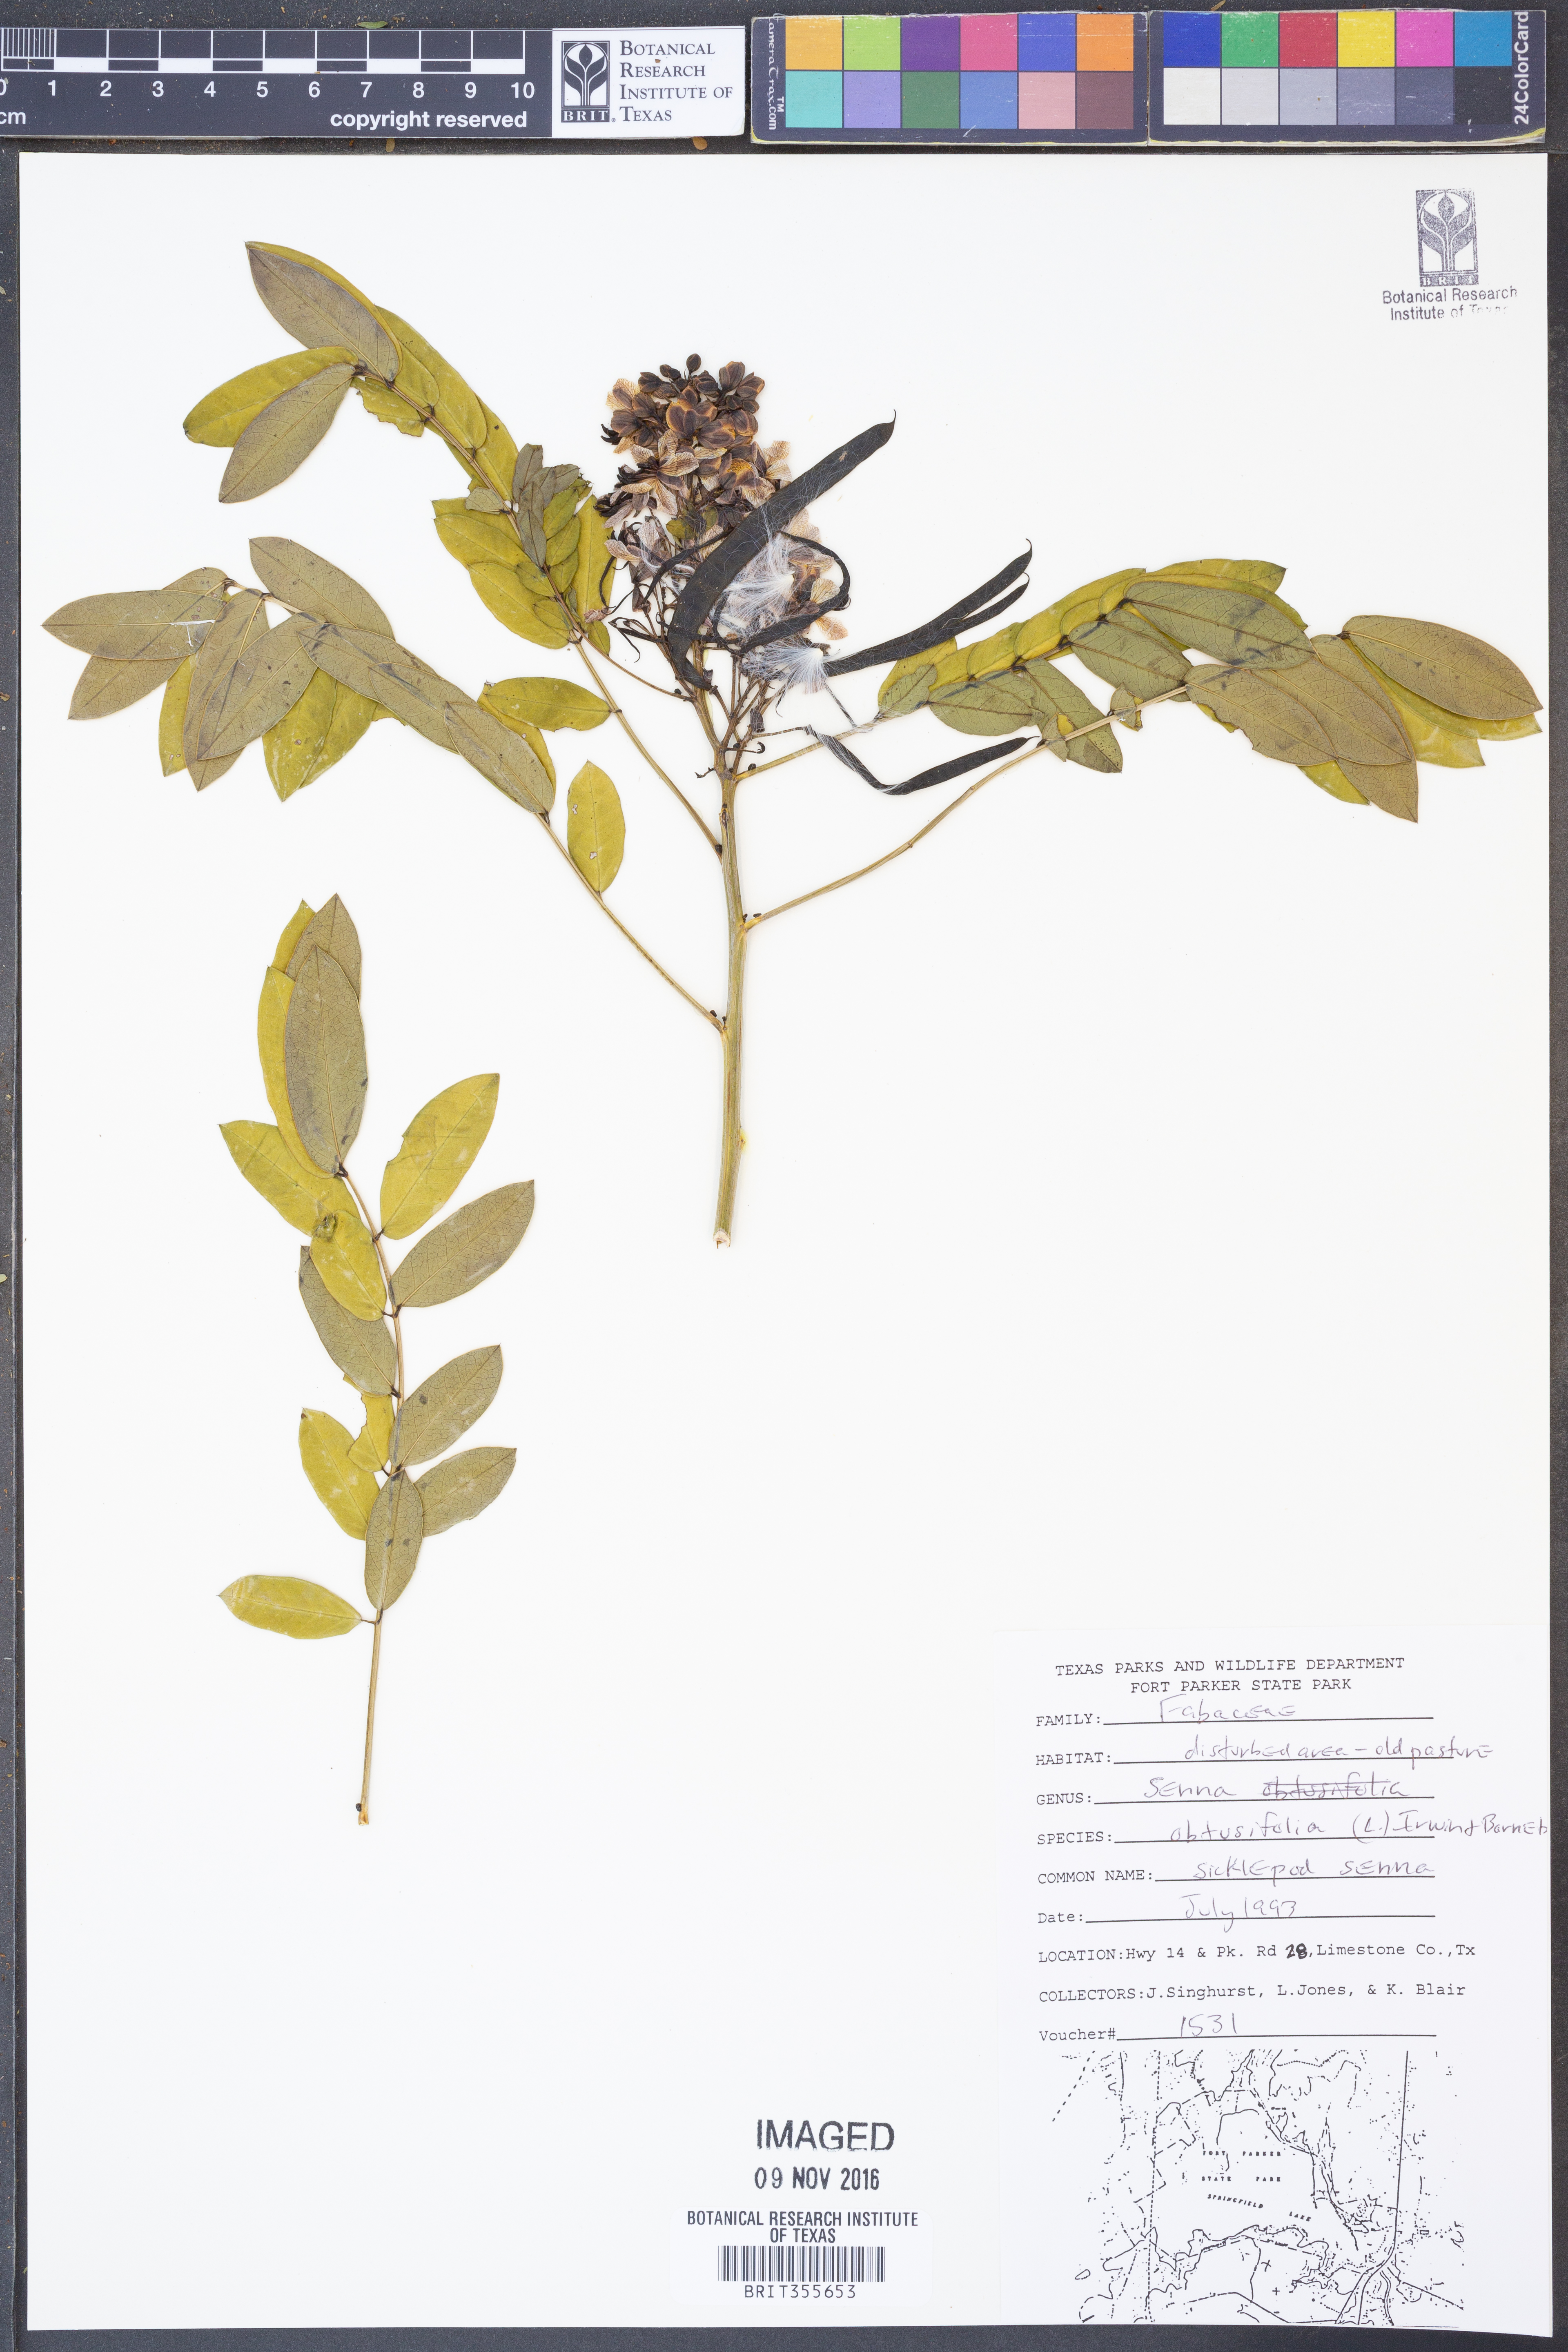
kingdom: Plantae
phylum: Tracheophyta
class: Magnoliopsida
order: Fabales
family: Fabaceae
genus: Senna
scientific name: Senna obtusifolia
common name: Java-bean
